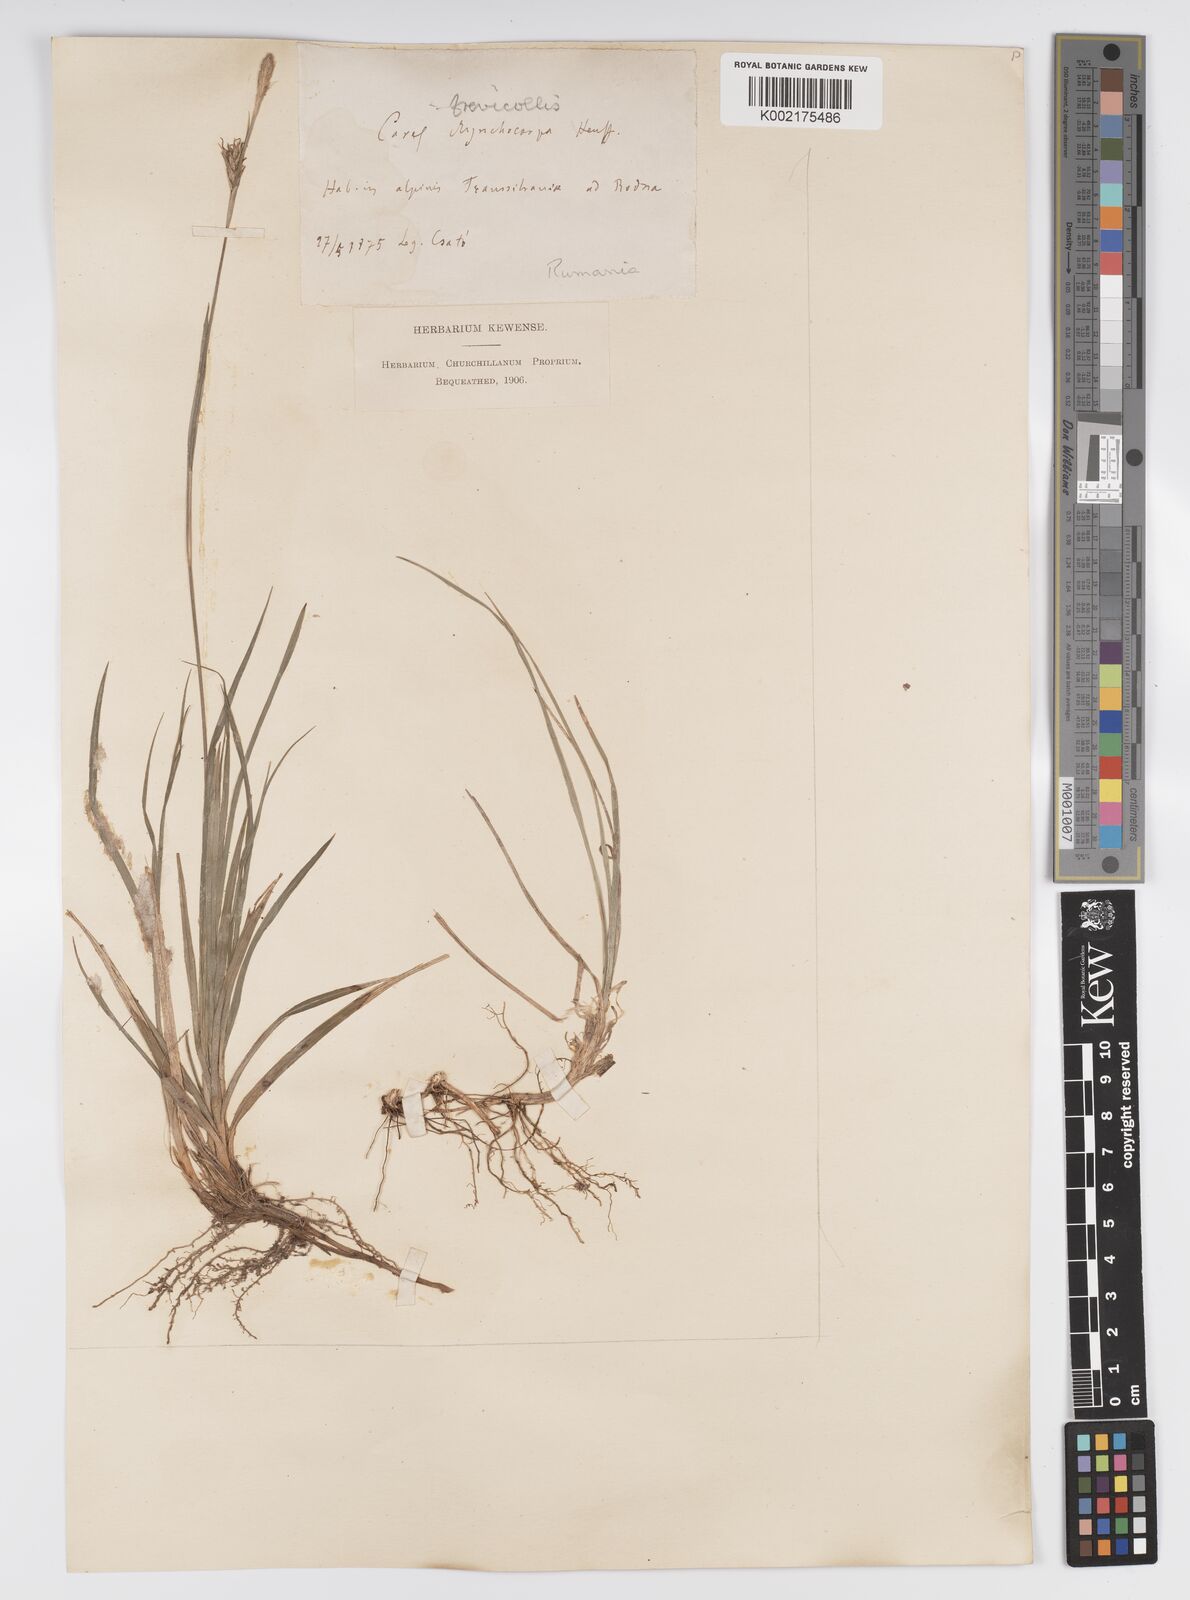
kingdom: Plantae
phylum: Tracheophyta
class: Liliopsida
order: Poales
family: Cyperaceae
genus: Carex
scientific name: Carex brevicollis
